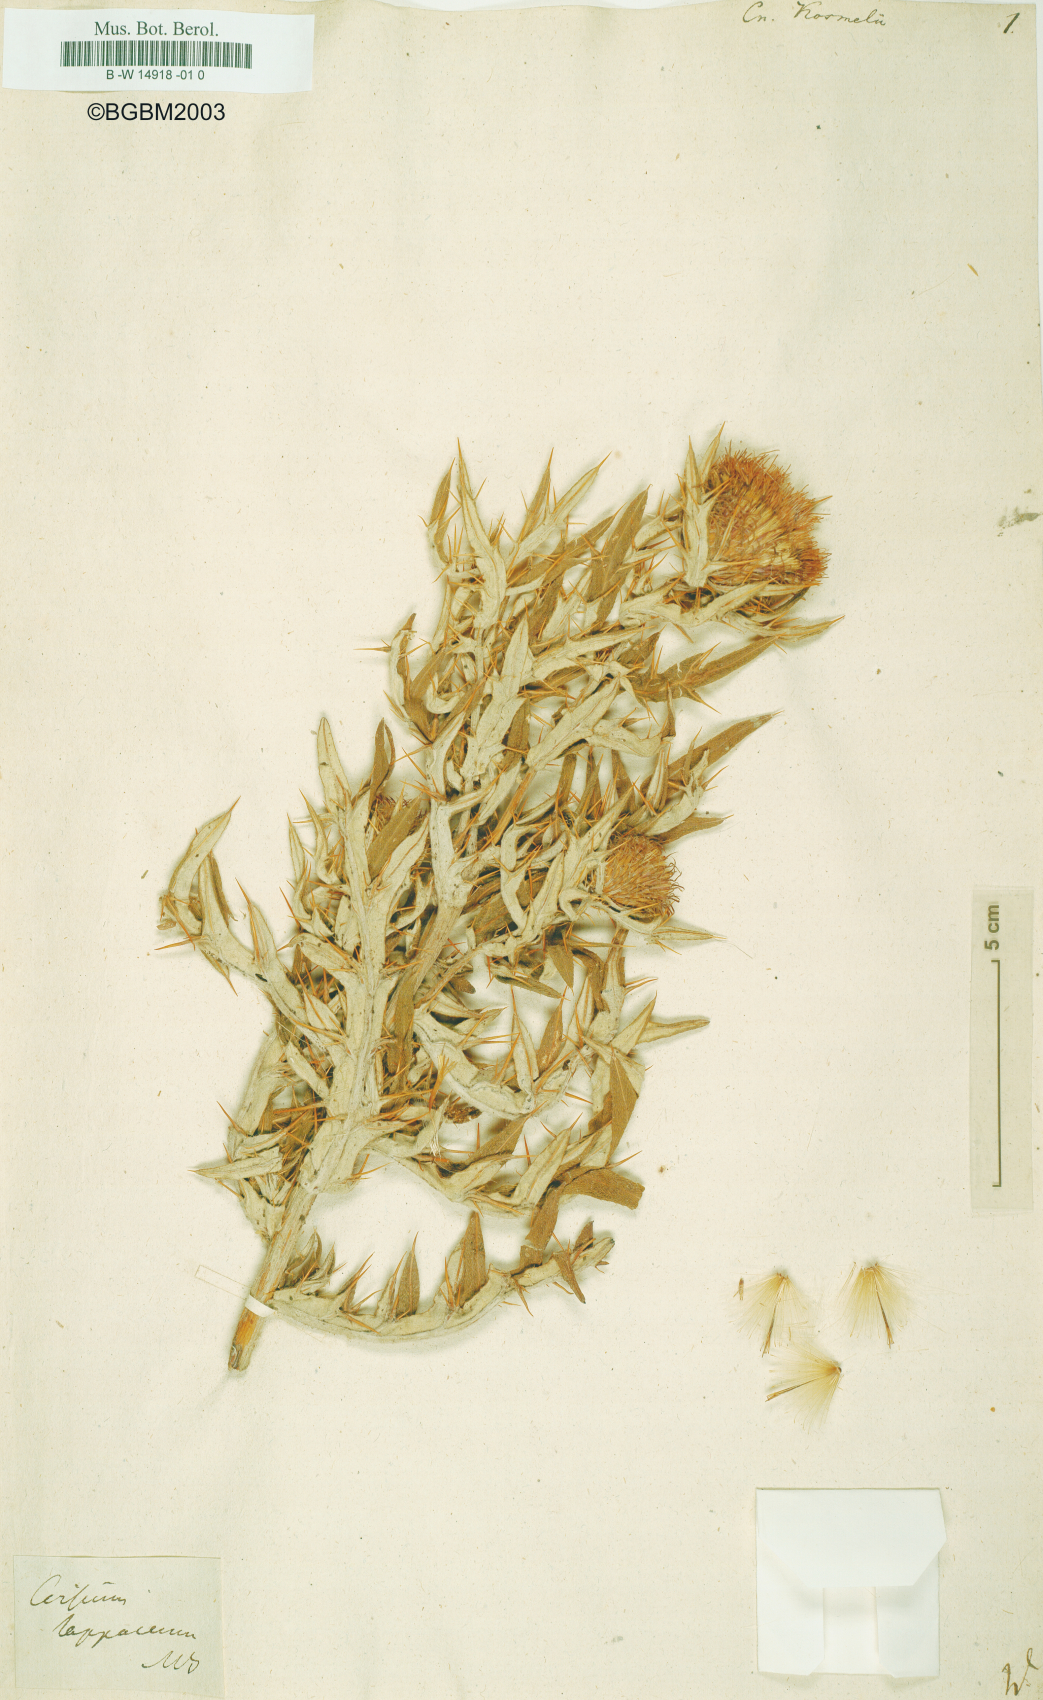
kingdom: Plantae
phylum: Tracheophyta
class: Magnoliopsida
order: Asterales
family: Asteraceae
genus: Lophiolepis
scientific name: Lophiolepis kosmelii
